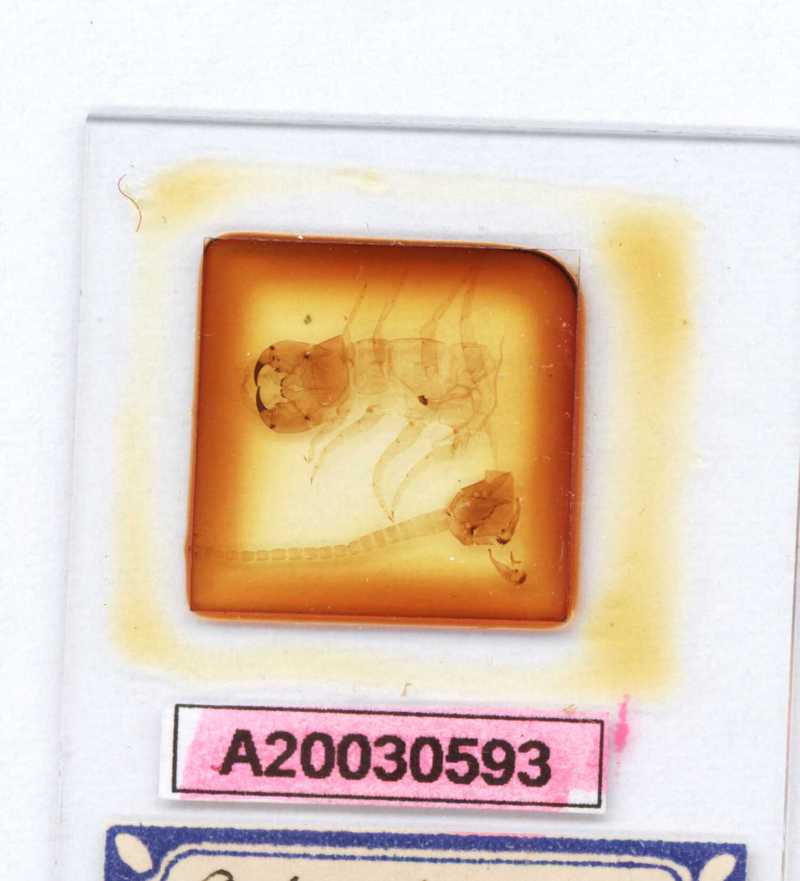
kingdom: Animalia
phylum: Arthropoda
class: Chilopoda
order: Scolopendromorpha
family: Scolopendridae
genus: Otostigmus
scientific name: Otostigmus pahangiensis
